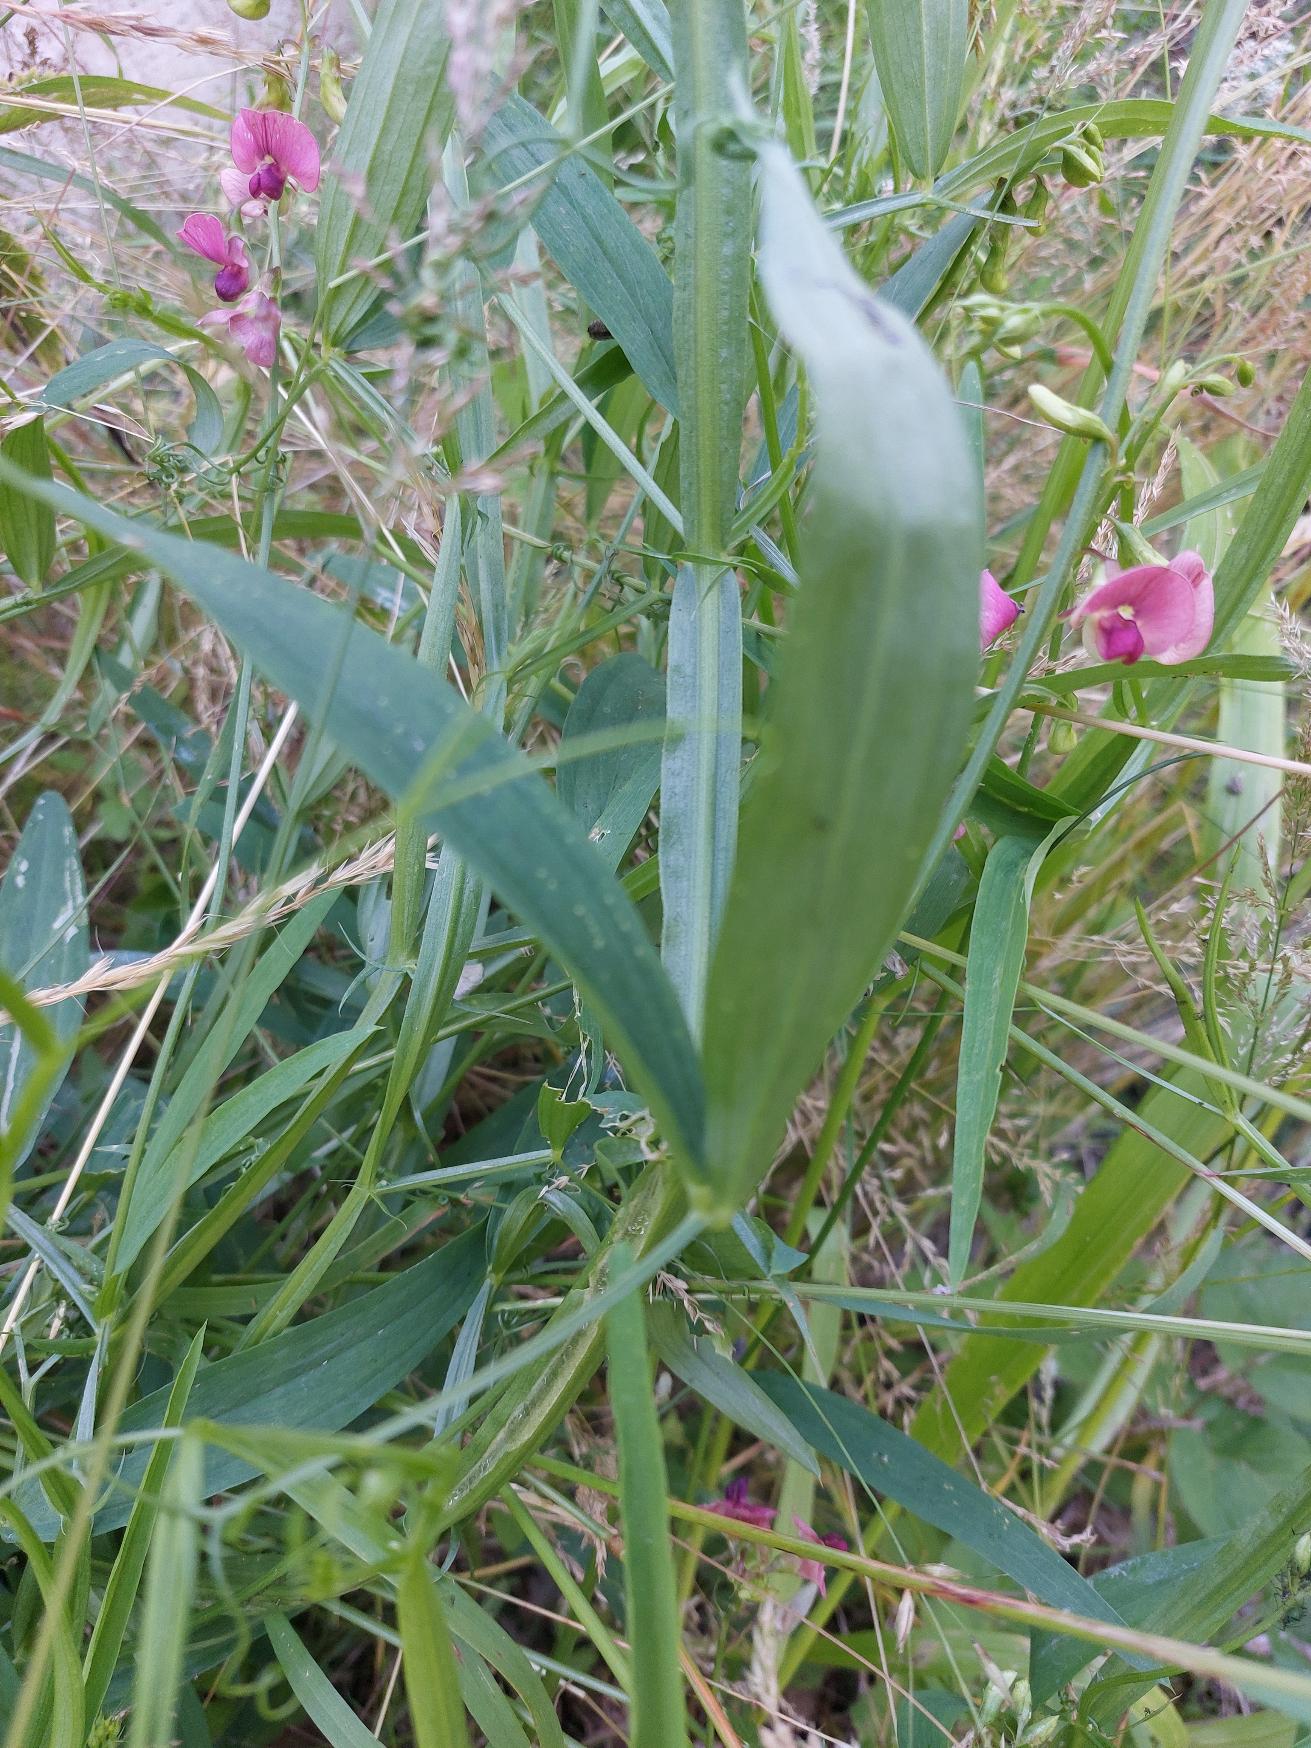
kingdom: Plantae
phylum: Tracheophyta
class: Magnoliopsida
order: Fabales
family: Fabaceae
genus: Lathyrus
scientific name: Lathyrus sylvestris
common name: Skov-fladbælg
